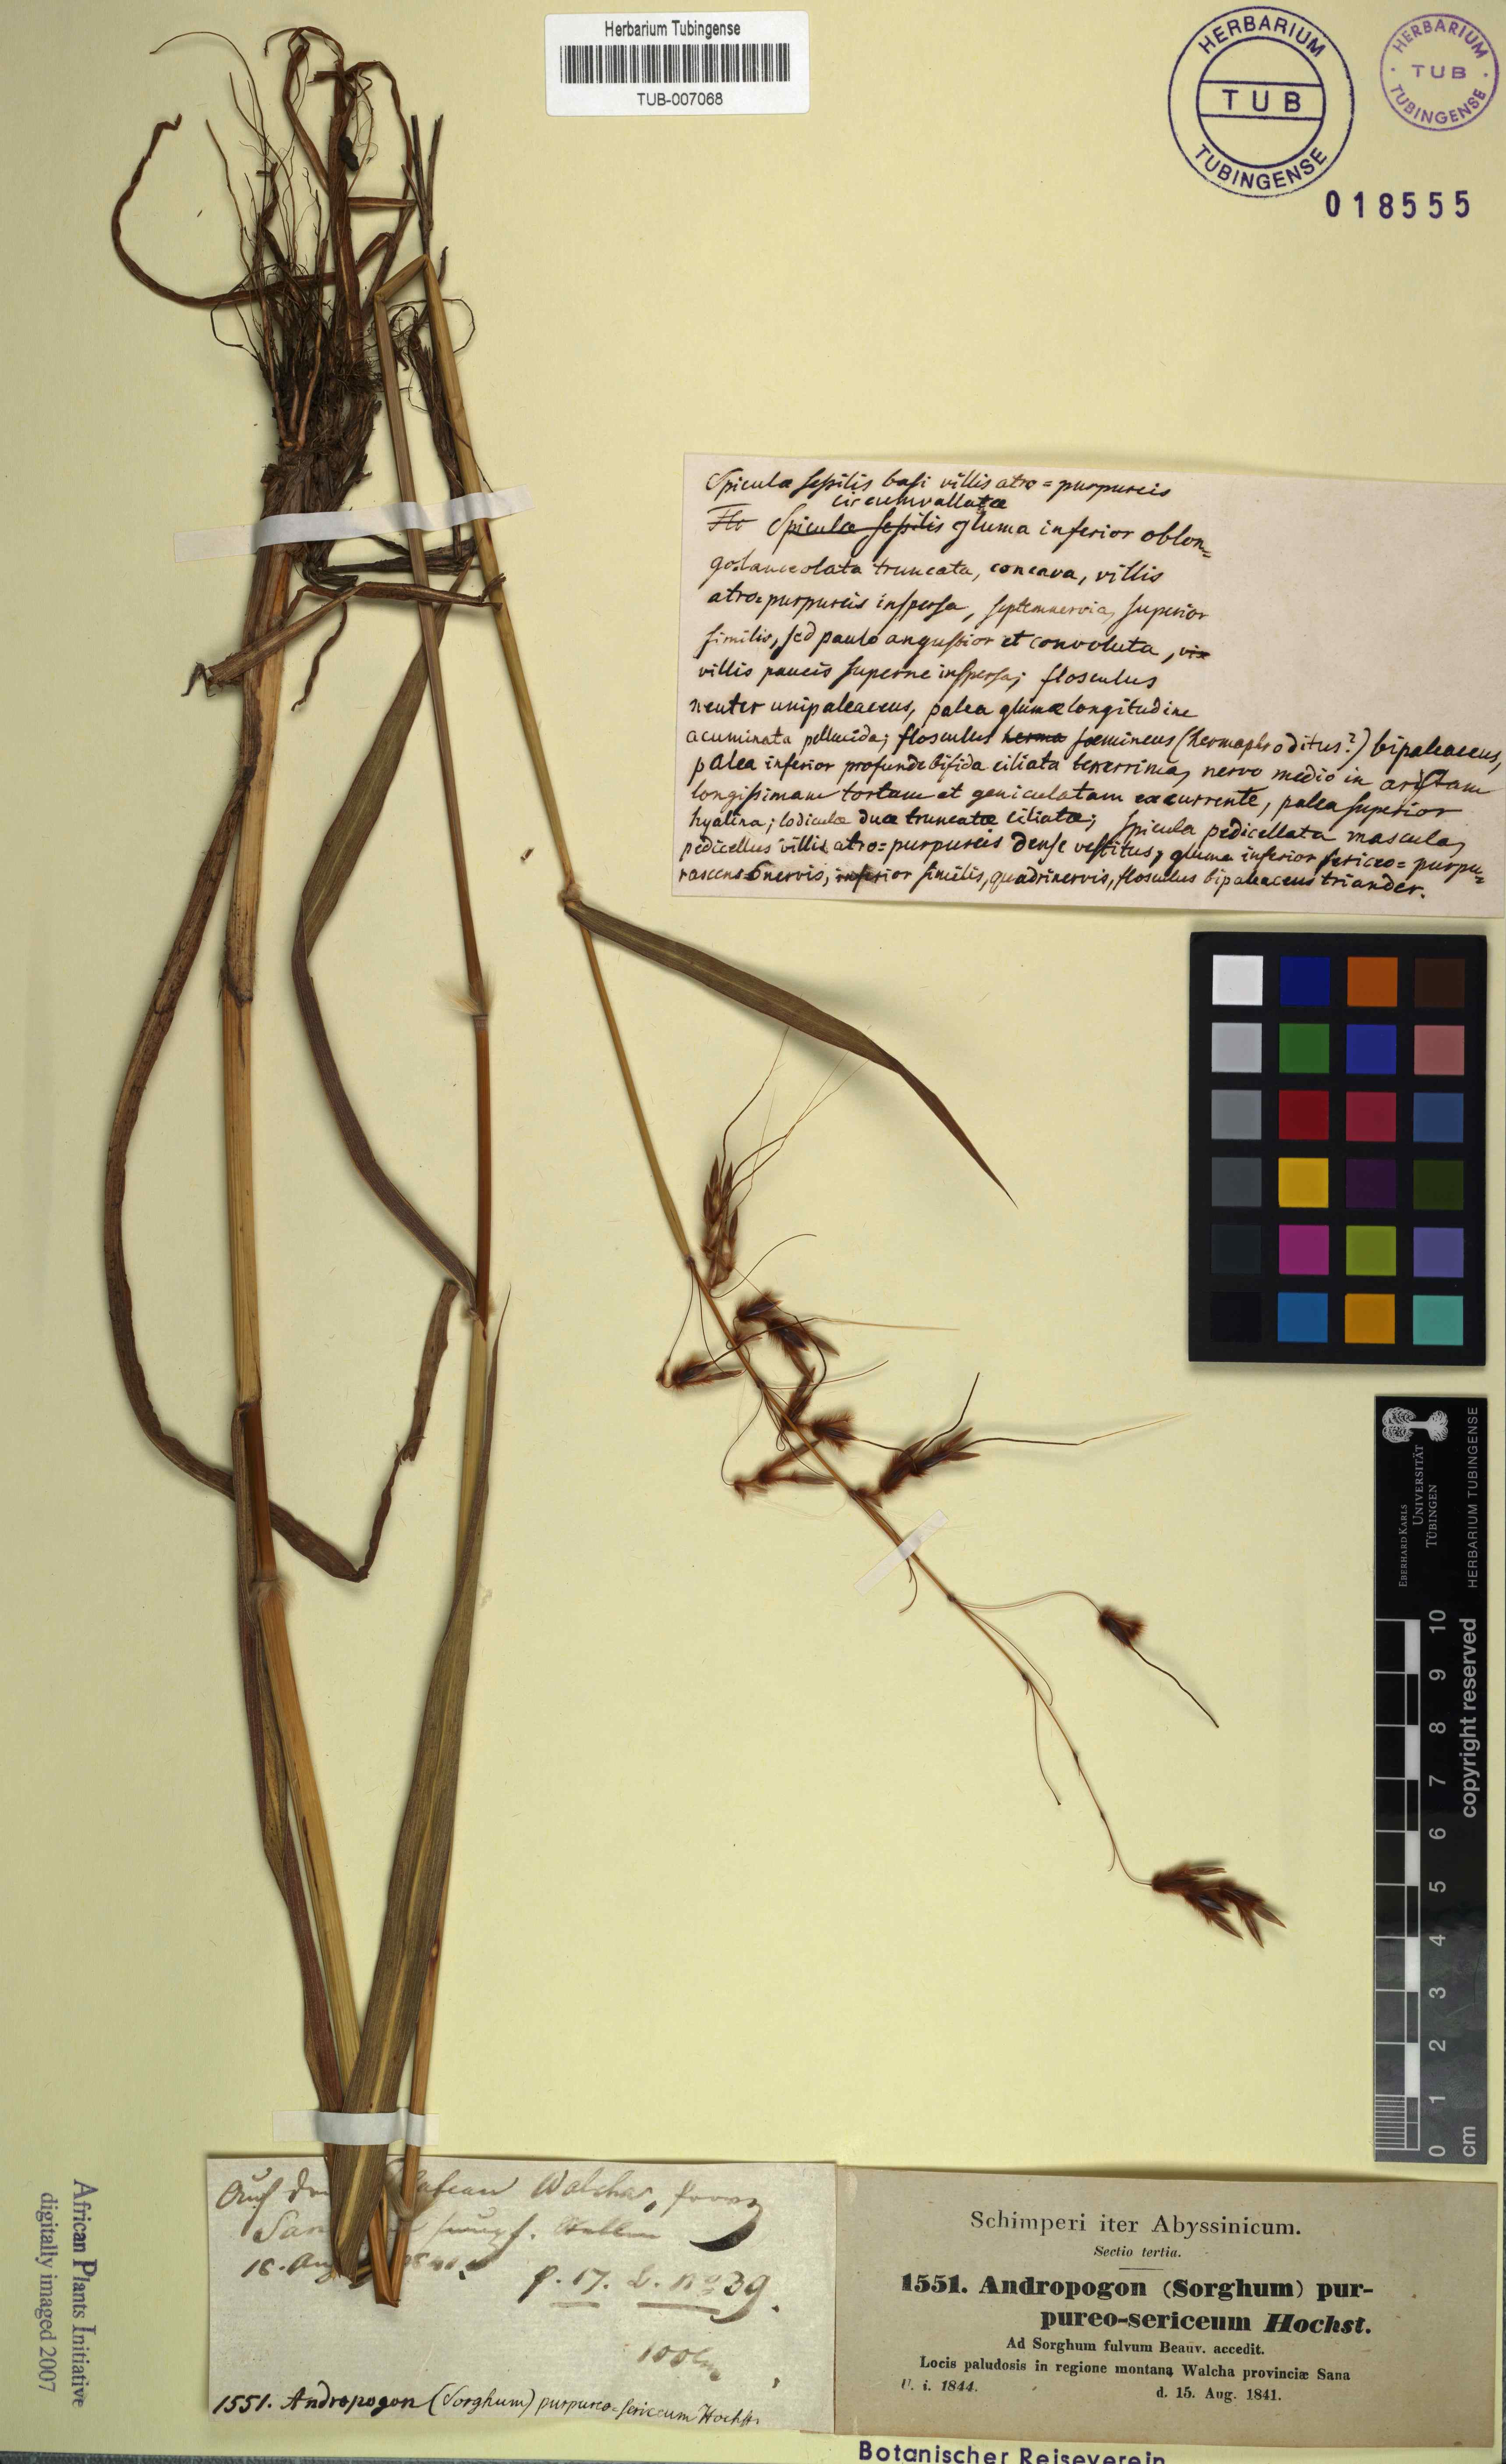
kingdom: Plantae
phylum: Tracheophyta
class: Liliopsida
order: Poales
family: Poaceae
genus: Sarga
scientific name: Sarga purpureosericea
